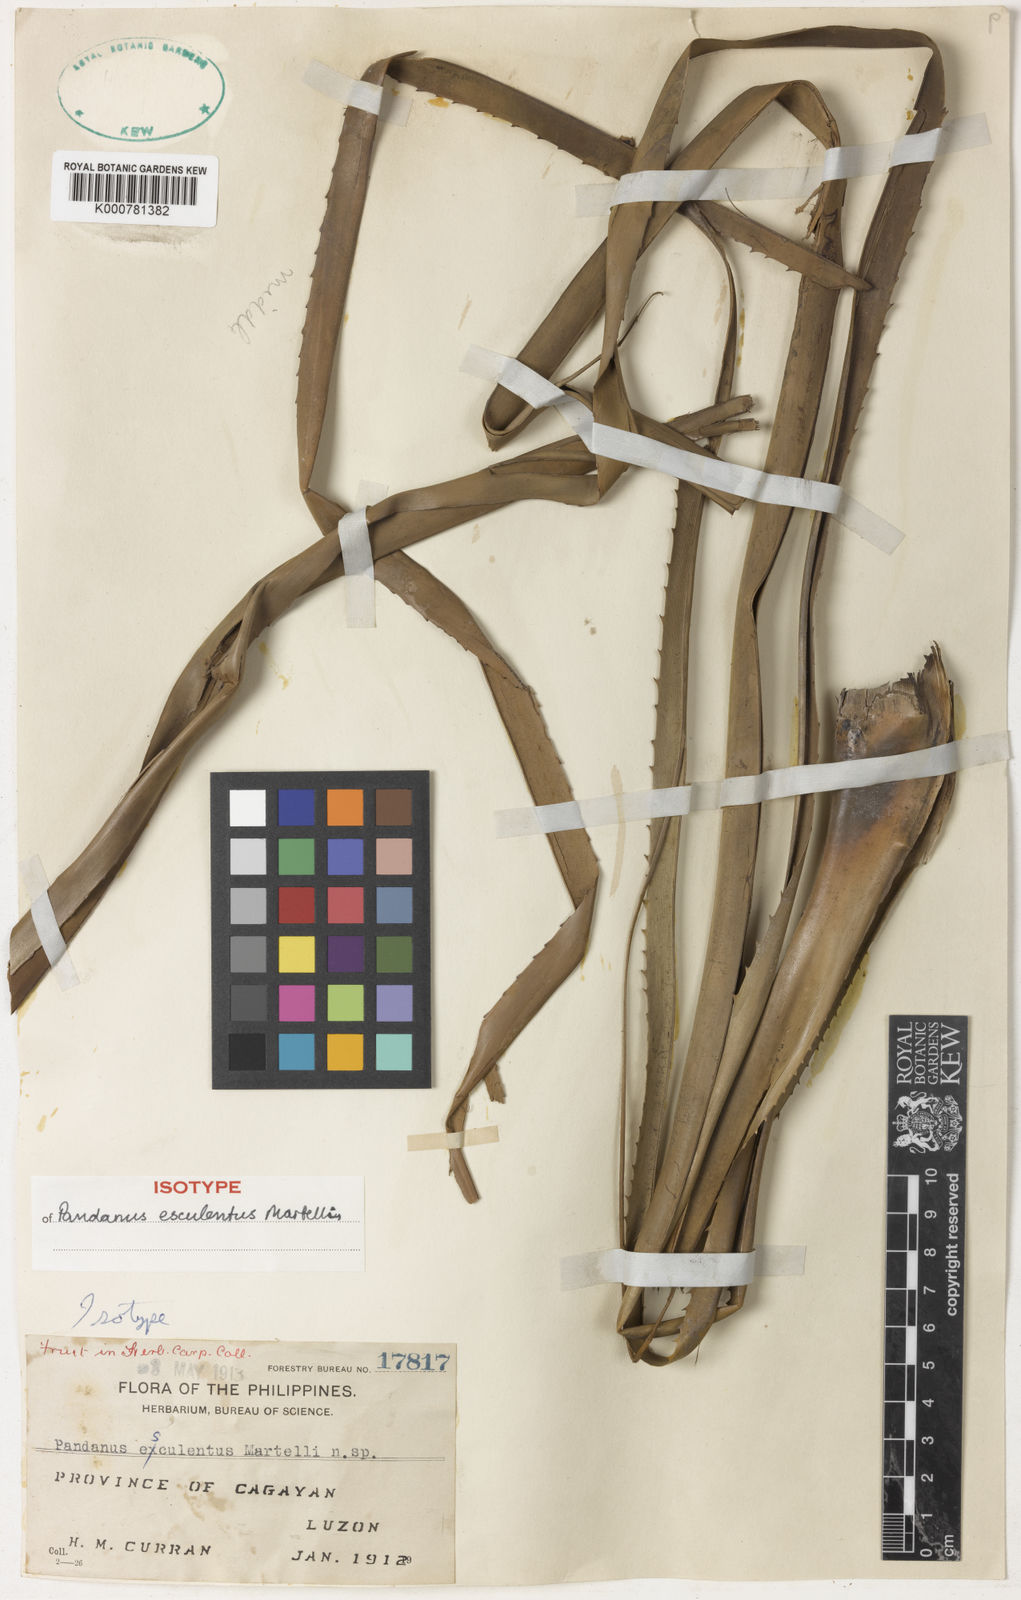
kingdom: Plantae
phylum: Tracheophyta
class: Liliopsida
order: Pandanales
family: Pandanaceae
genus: Pandanus
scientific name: Pandanus esculentus
